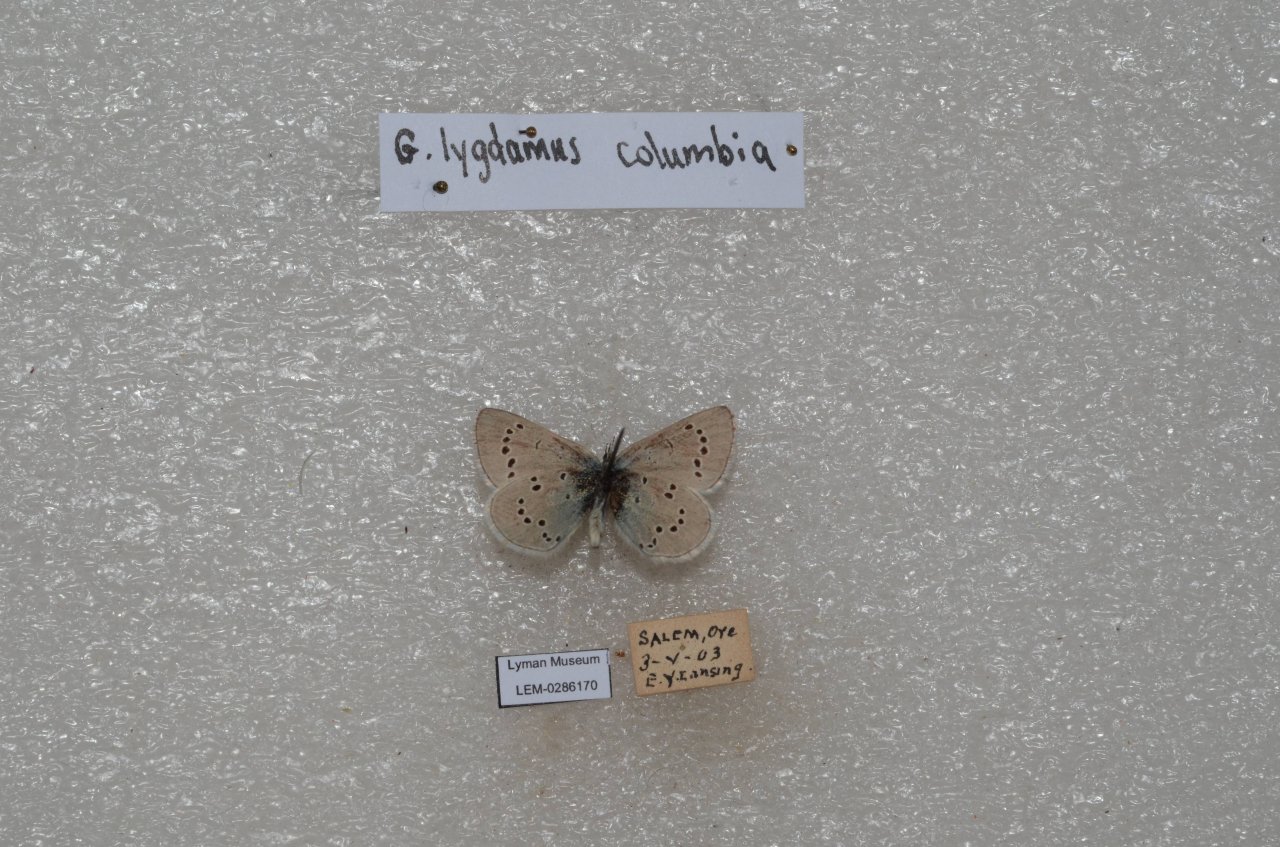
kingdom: Animalia
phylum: Arthropoda
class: Insecta
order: Lepidoptera
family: Lycaenidae
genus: Glaucopsyche
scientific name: Glaucopsyche lygdamus
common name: Silvery Blue
